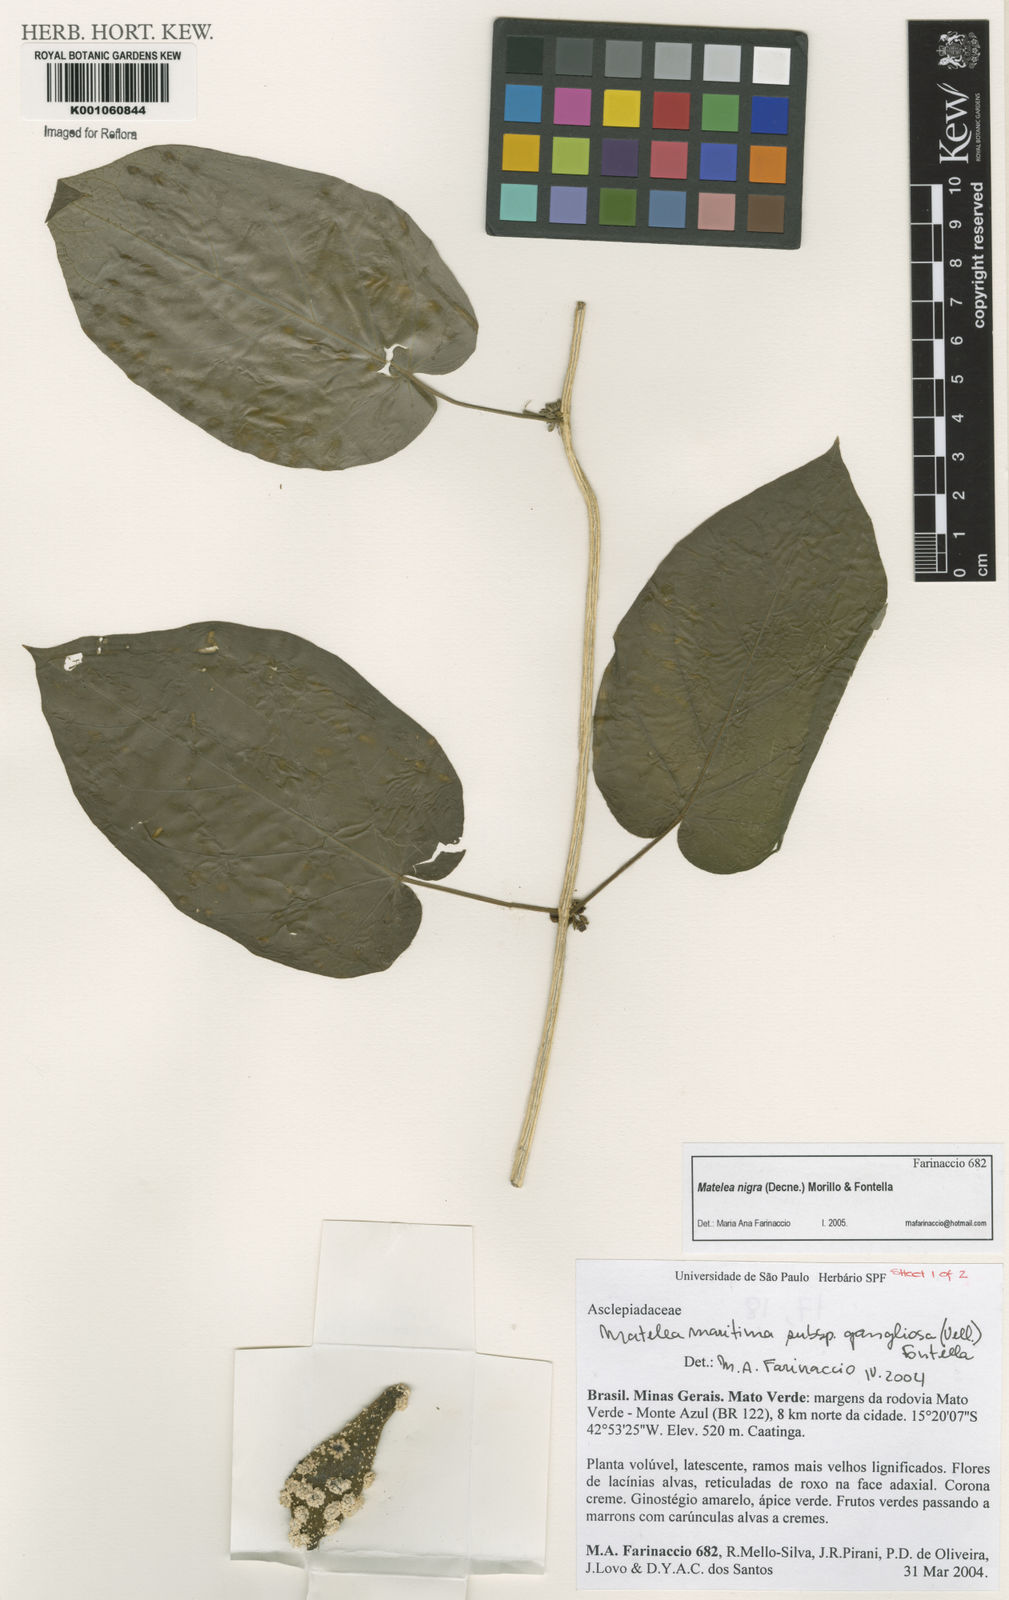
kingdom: Plantae
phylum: Tracheophyta
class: Magnoliopsida
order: Gentianales
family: Apocynaceae
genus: Ibatia
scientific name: Ibatia nigra
